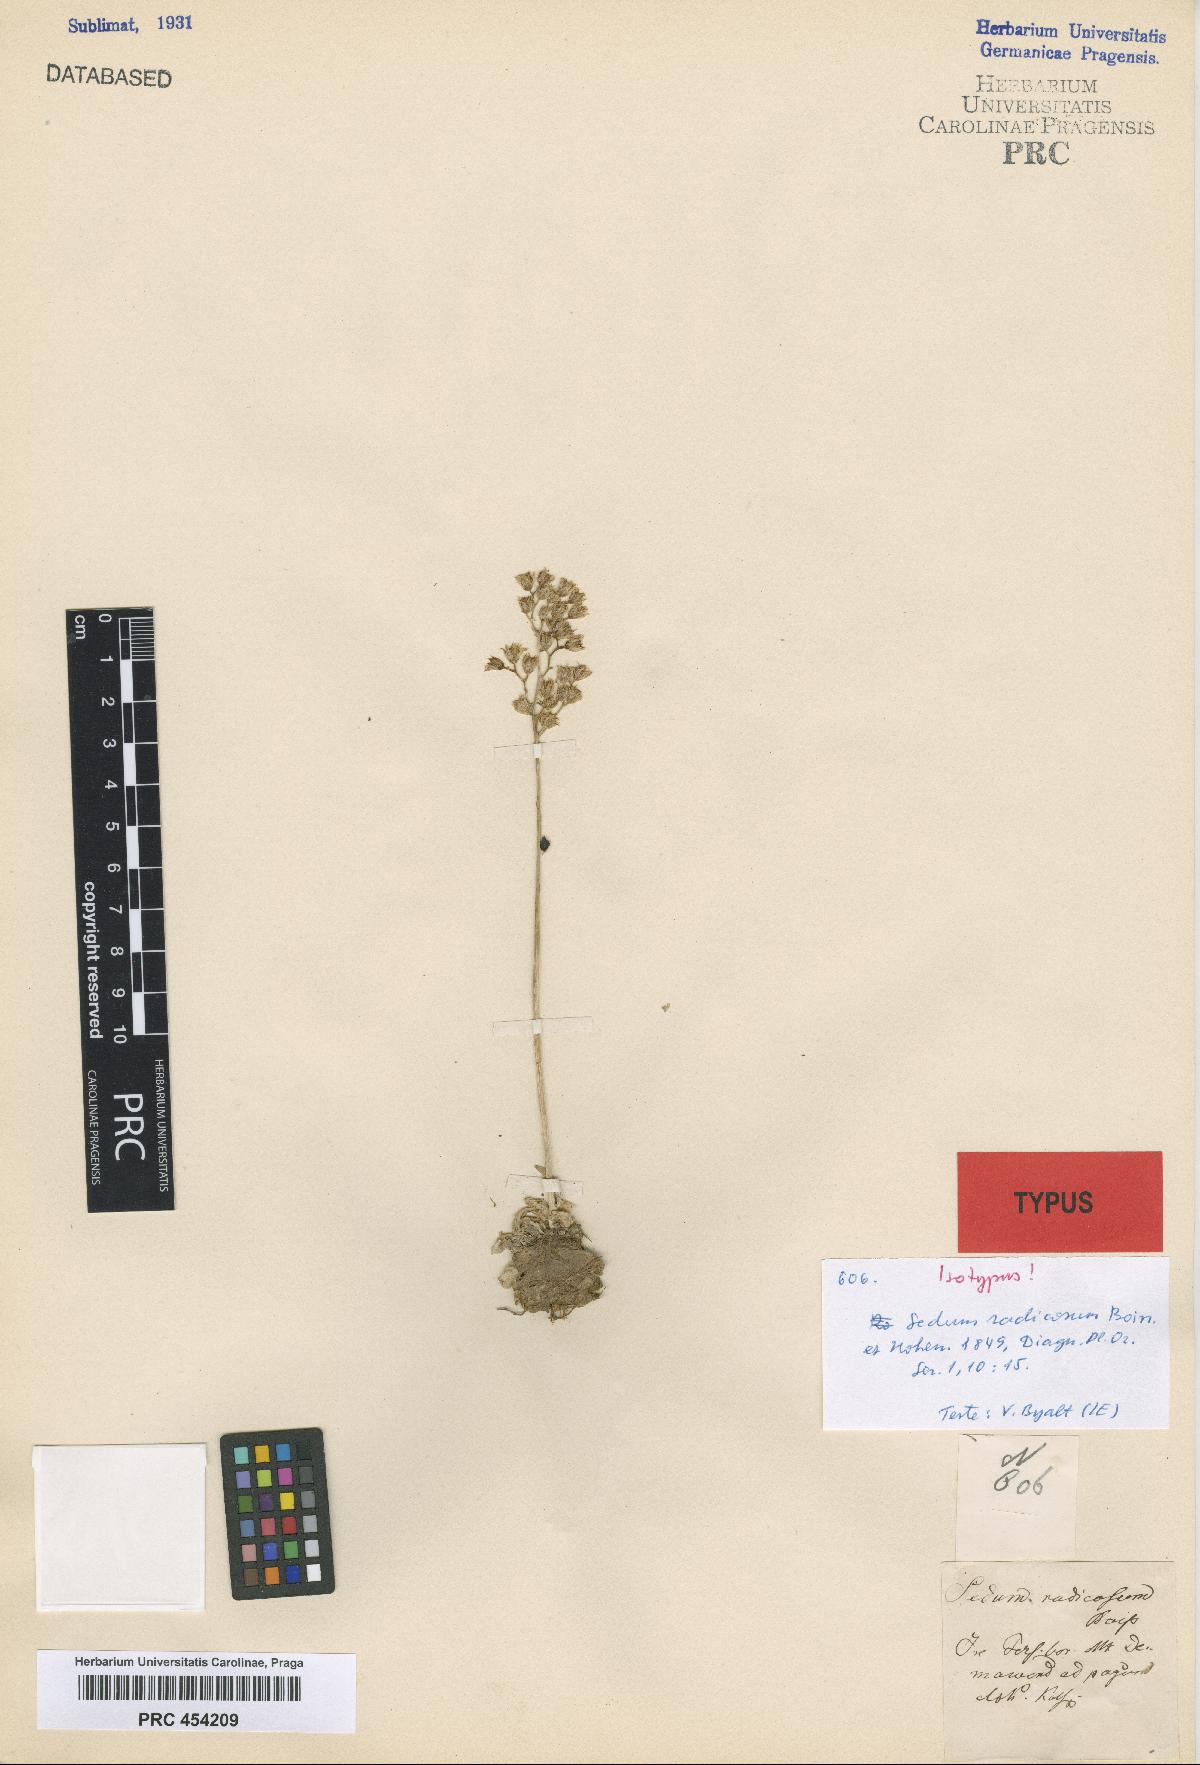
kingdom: Plantae
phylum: Tracheophyta
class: Magnoliopsida
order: Saxifragales
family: Crassulaceae
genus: Rosularia
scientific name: Rosularia radicosa
